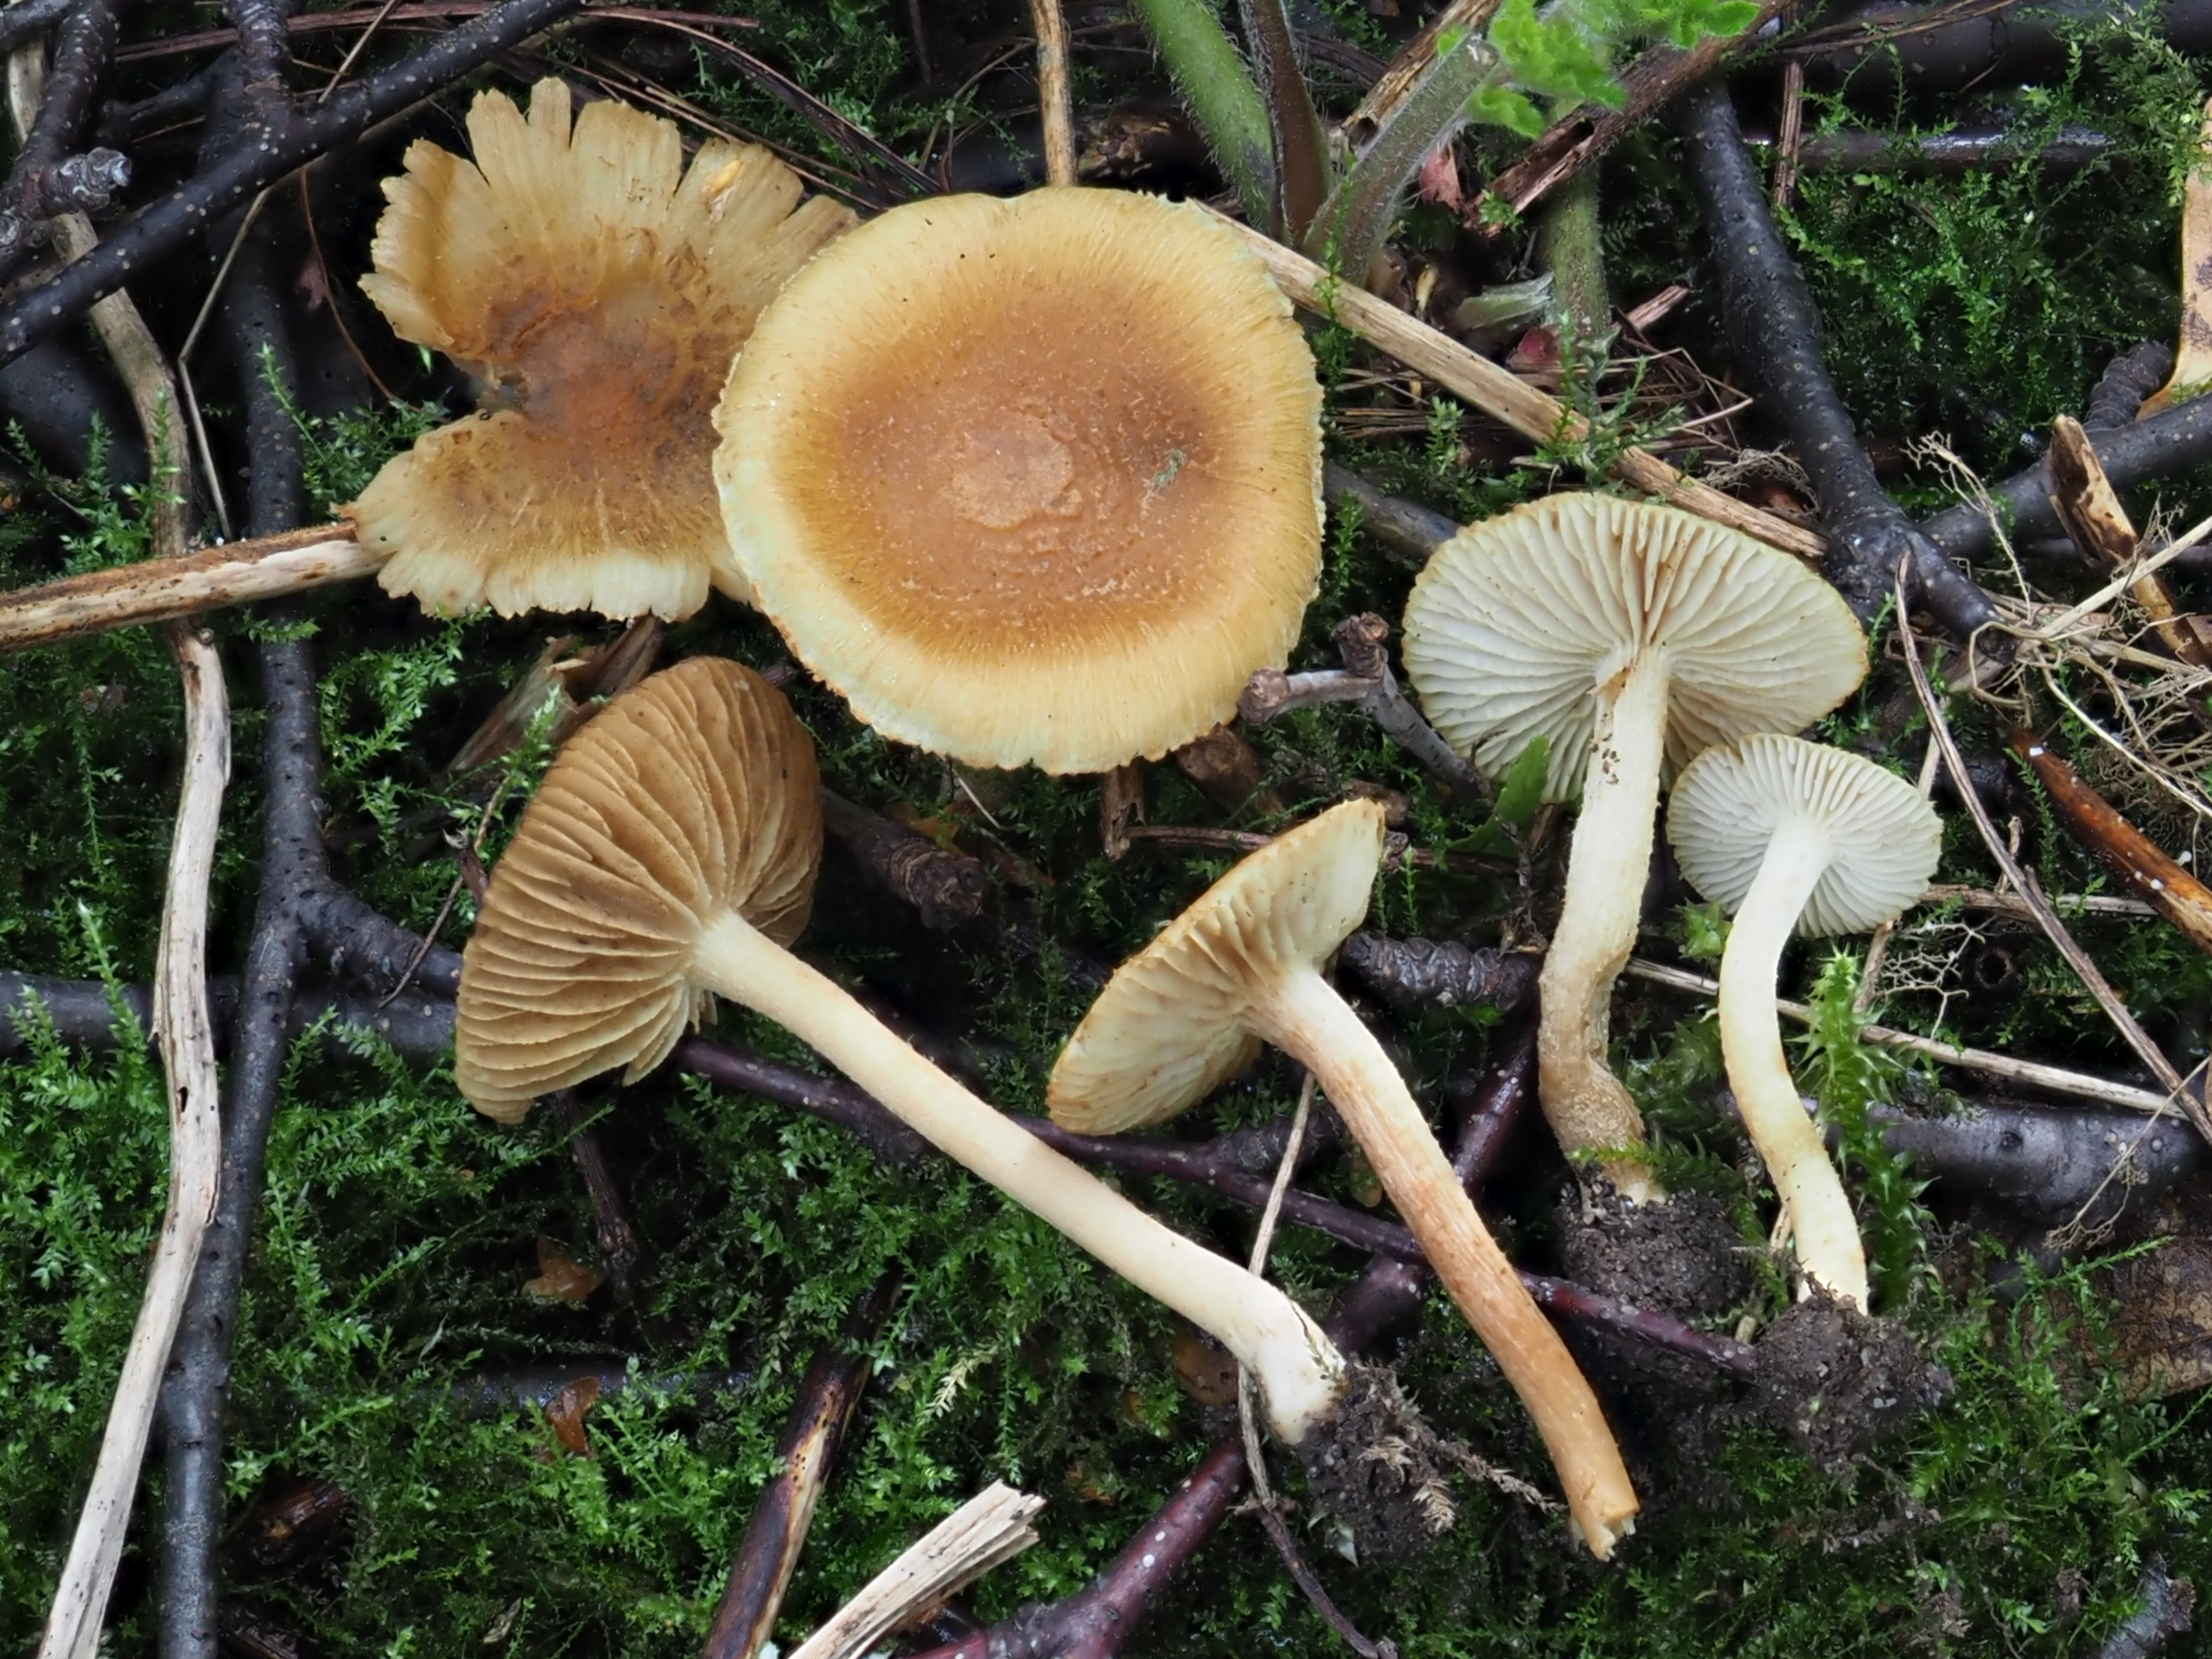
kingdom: Fungi
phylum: Basidiomycota
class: Agaricomycetes
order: Agaricales
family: Inocybaceae
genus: Inocybe
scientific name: Inocybe muricellata
